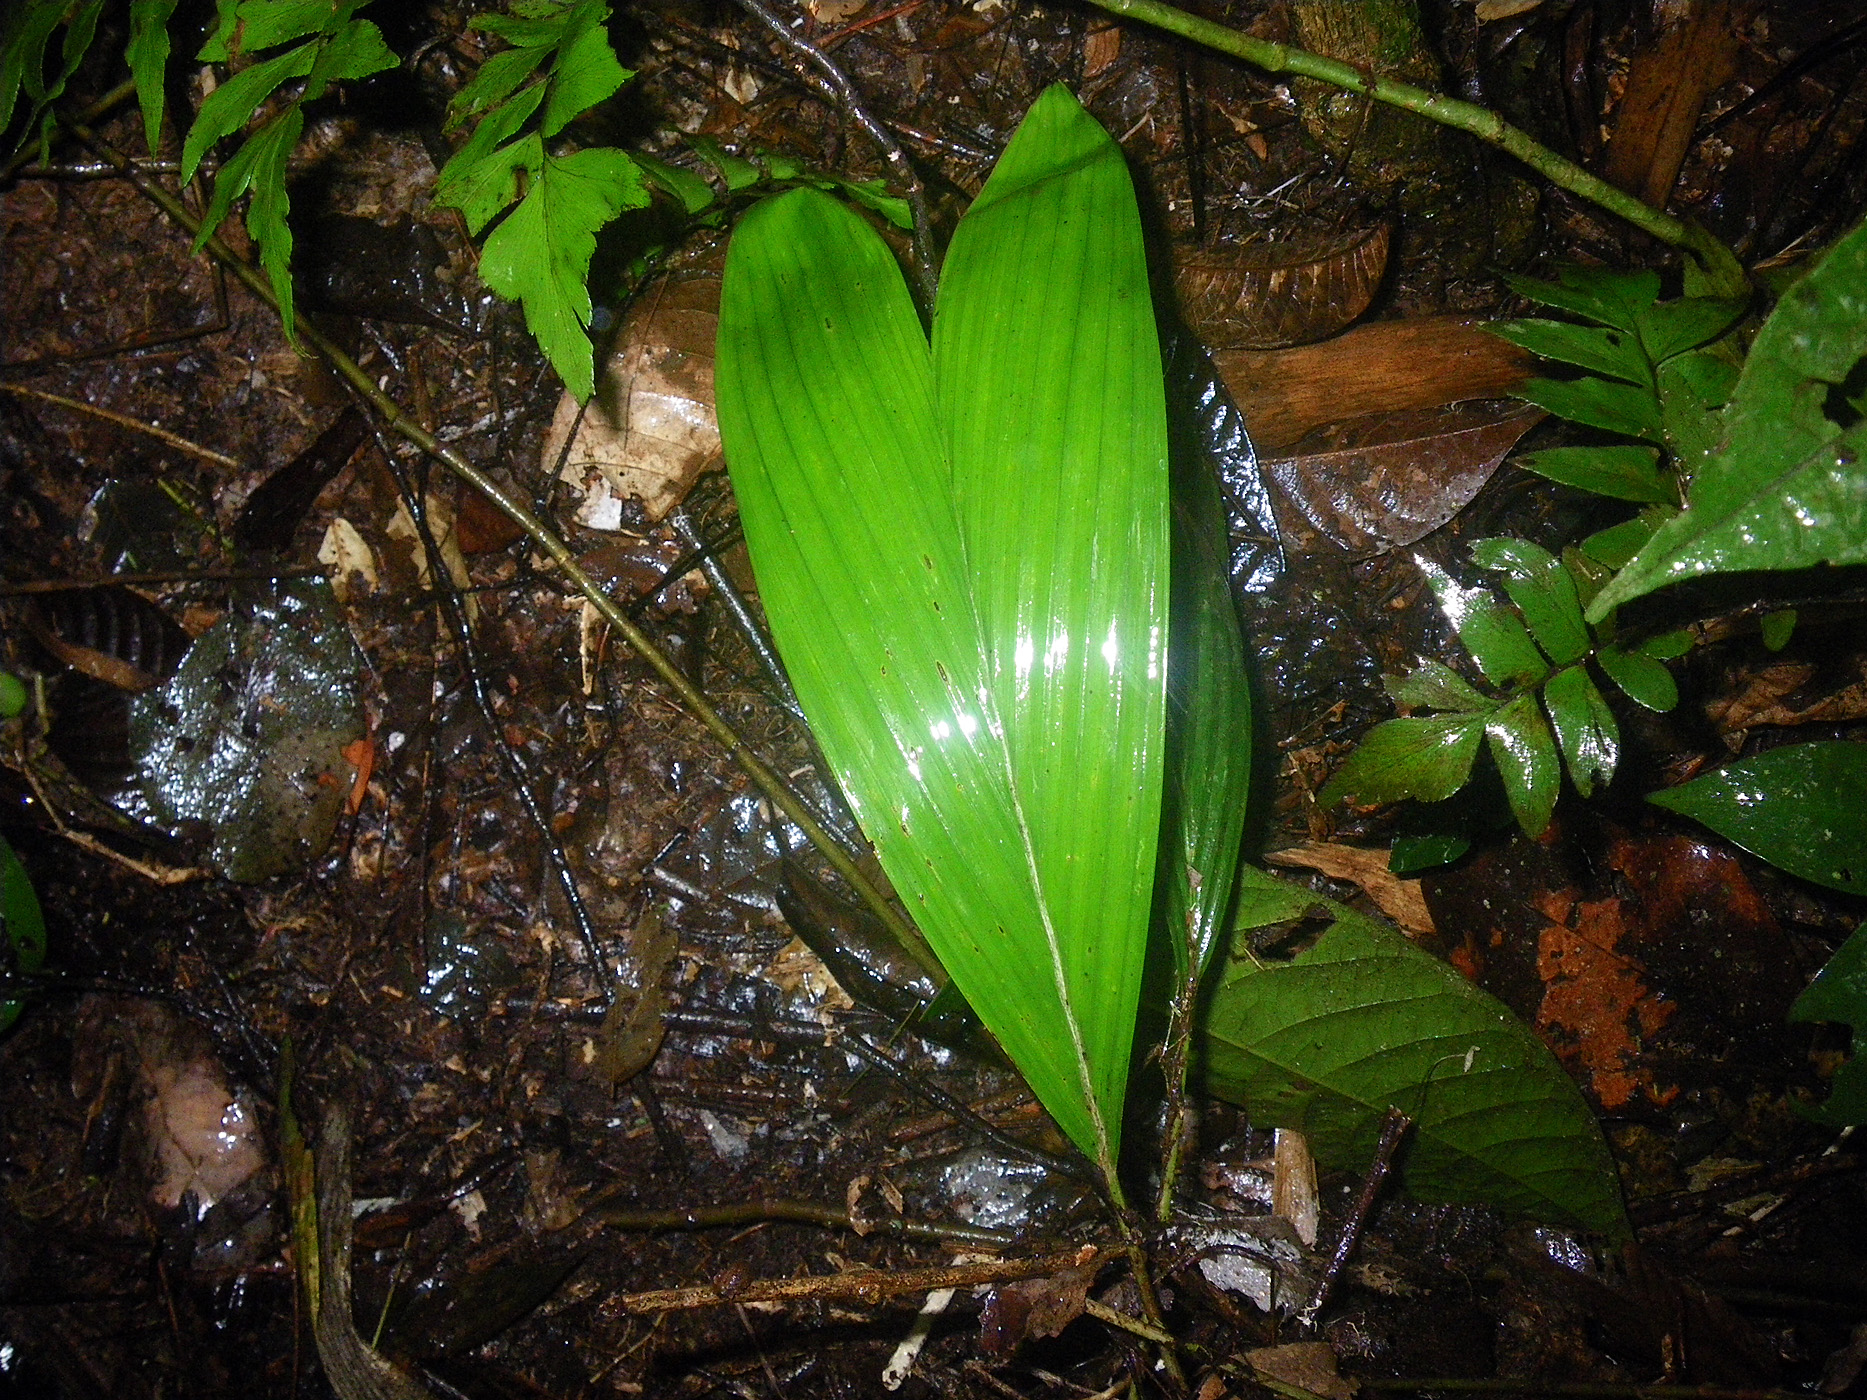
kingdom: Plantae
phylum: Tracheophyta
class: Liliopsida
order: Arecales
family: Arecaceae
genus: Astrocaryum
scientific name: Astrocaryum ulei
